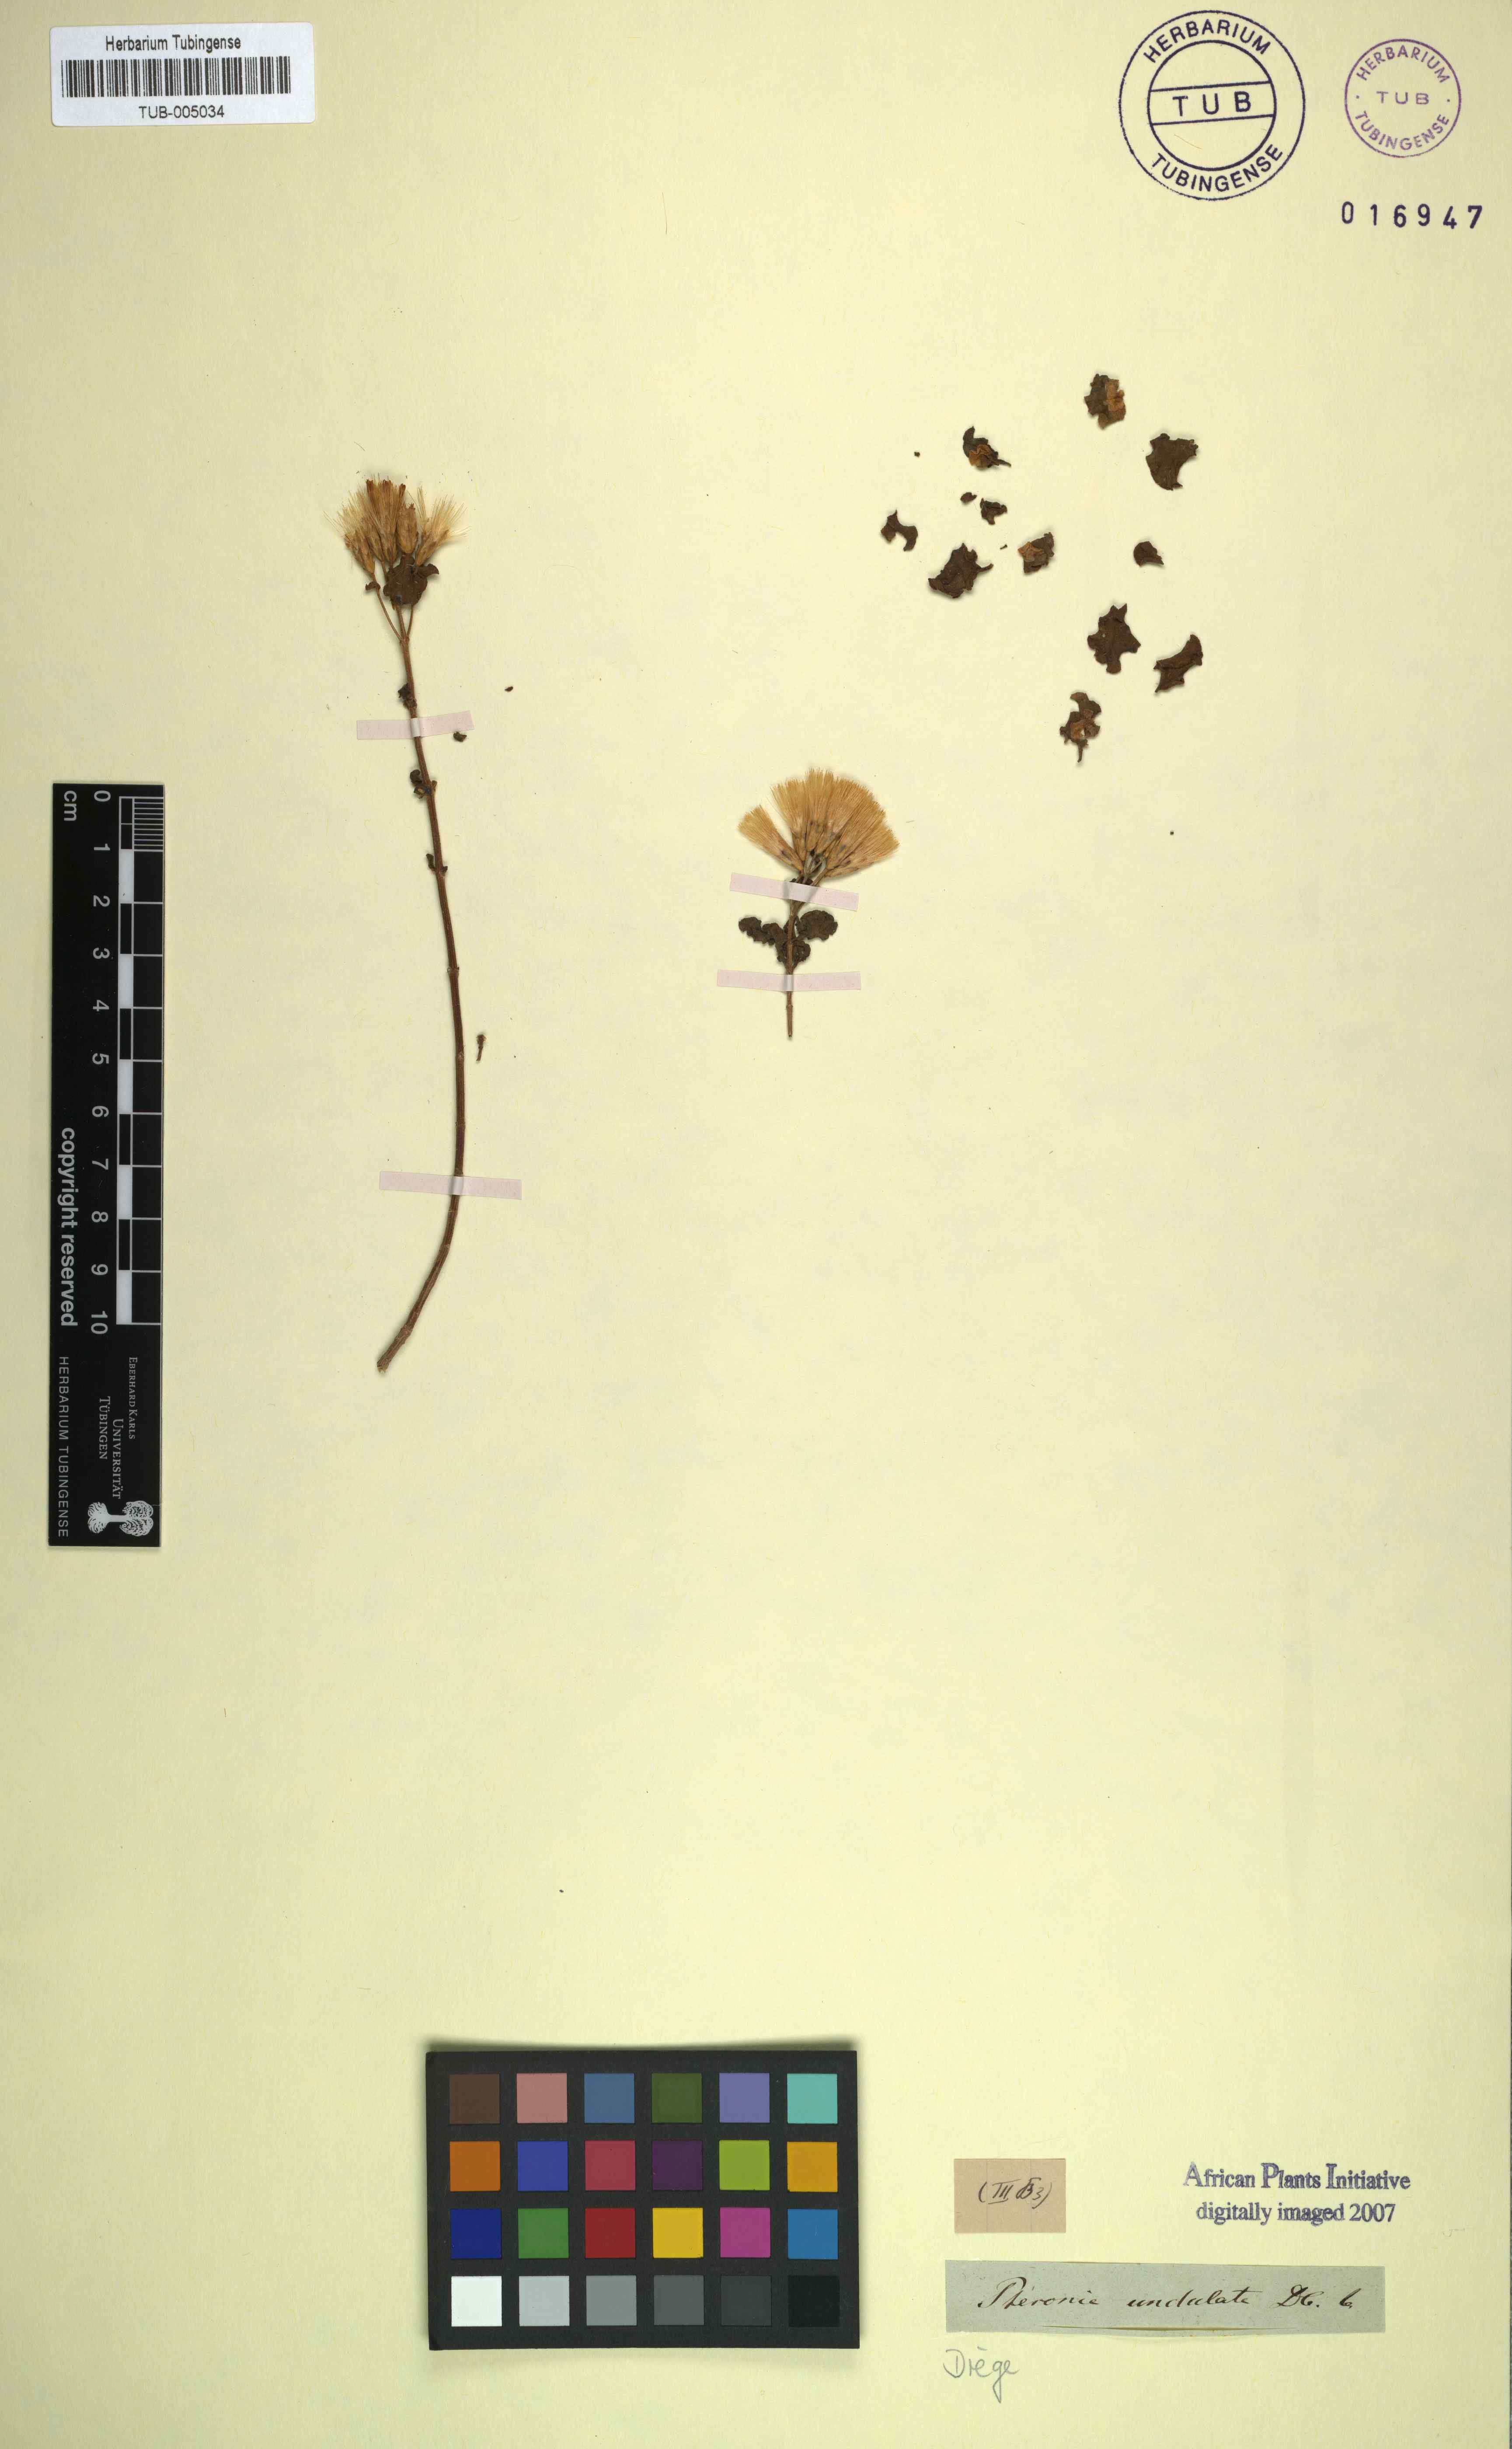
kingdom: Plantae
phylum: Tracheophyta
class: Magnoliopsida
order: Asterales
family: Asteraceae
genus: Pteronia
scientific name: Pteronia undulata
